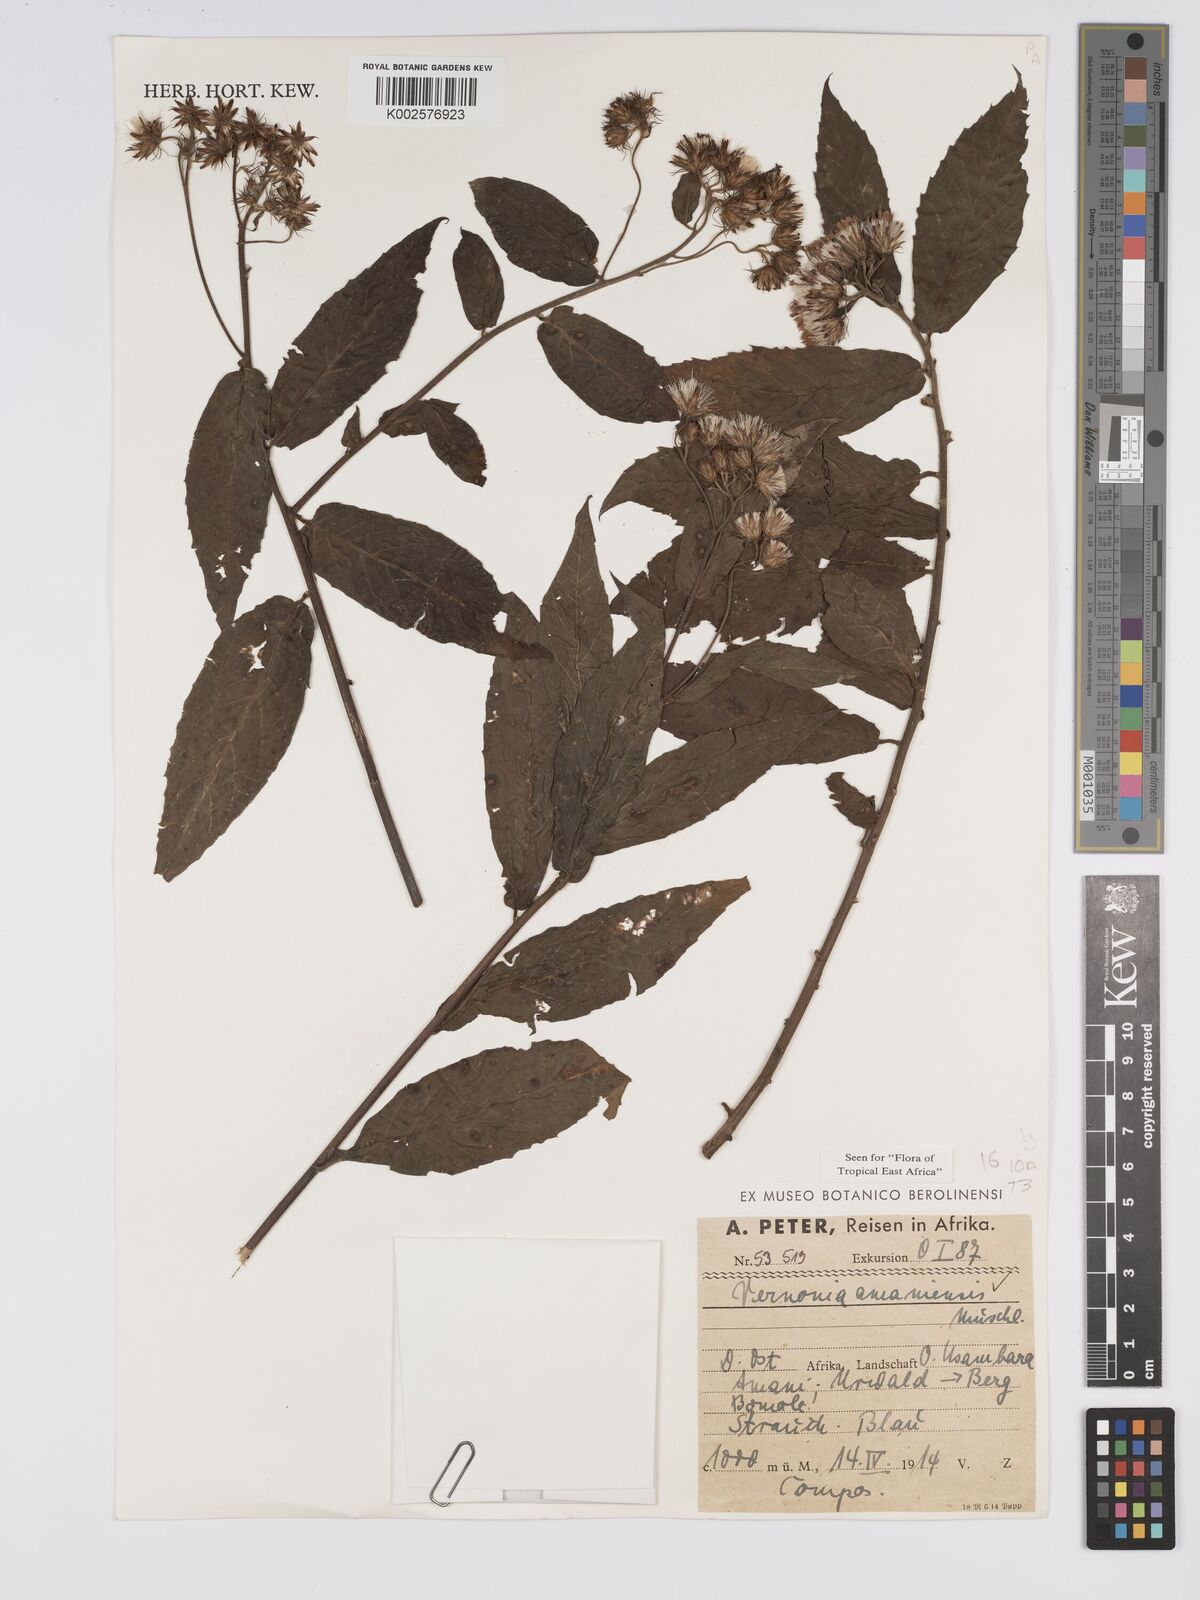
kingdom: Plantae
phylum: Tracheophyta
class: Magnoliopsida
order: Asterales
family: Asteraceae
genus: Jeffreycia
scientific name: Jeffreycia amaniensis
